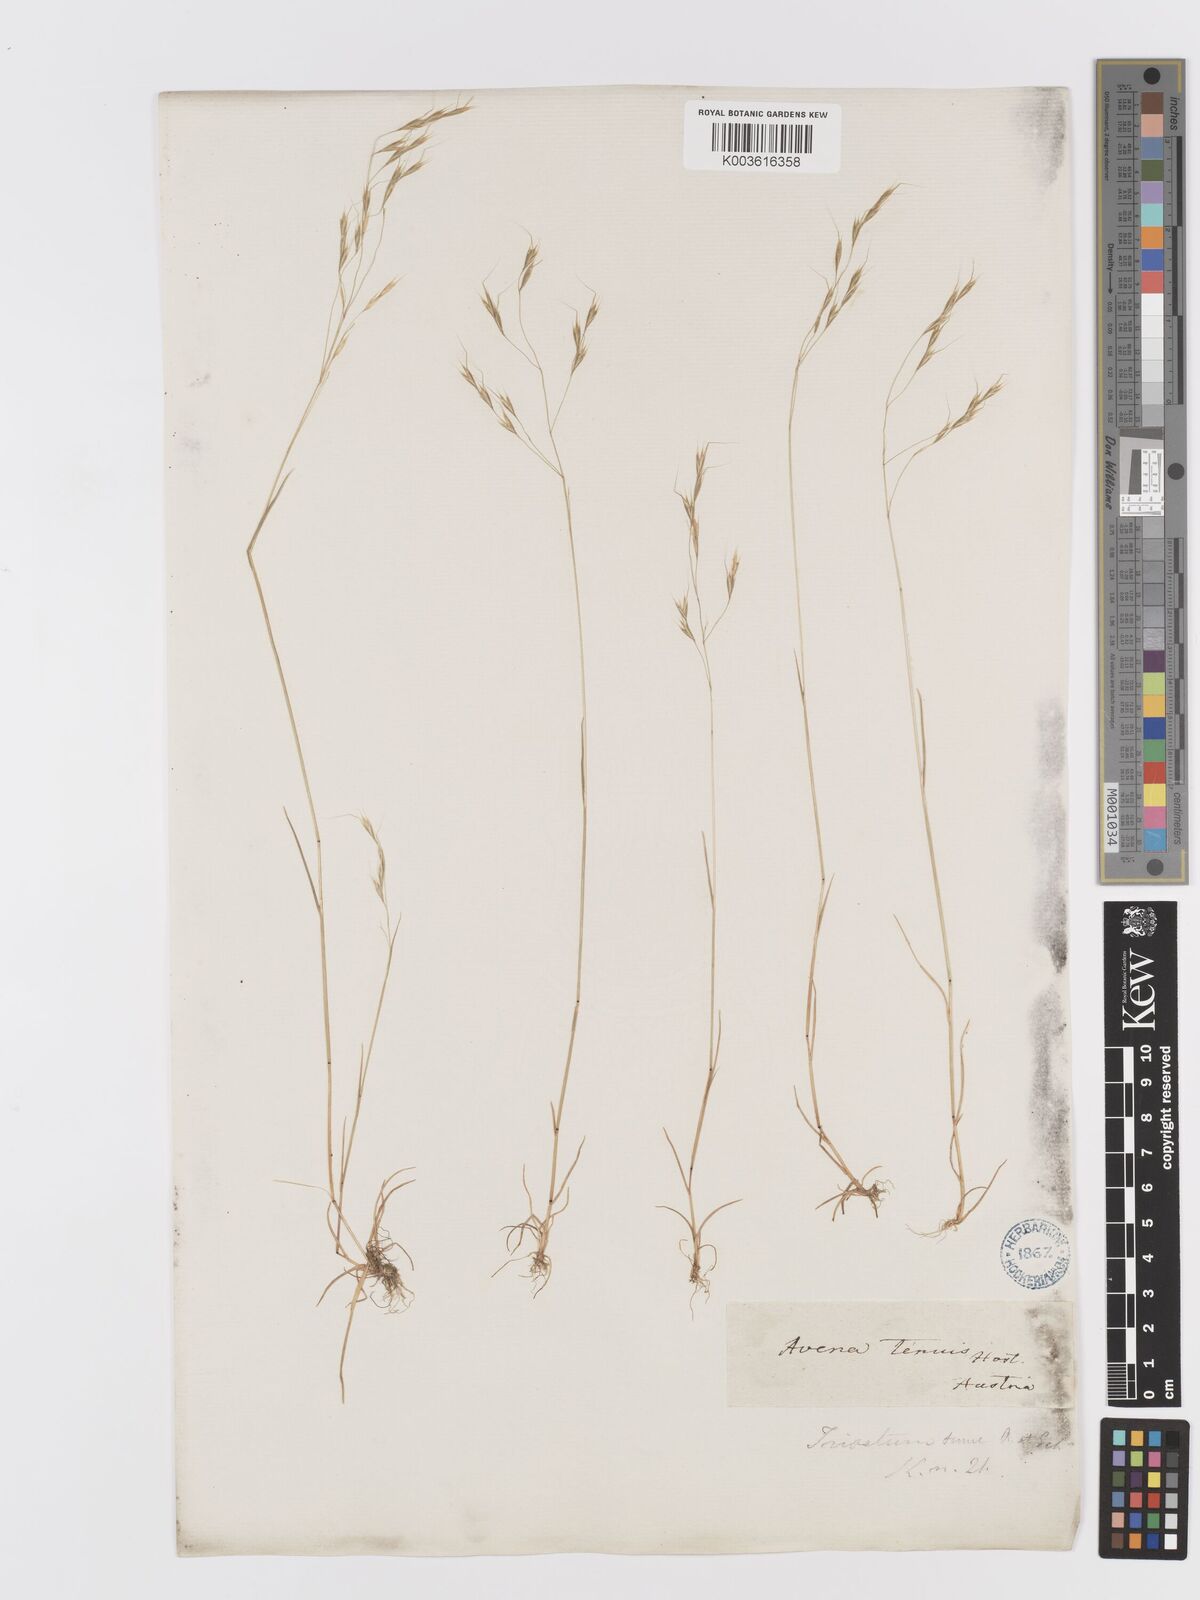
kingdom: Plantae
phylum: Tracheophyta
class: Liliopsida
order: Poales
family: Poaceae
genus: Ventenata
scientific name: Ventenata dubia
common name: North africa grass
